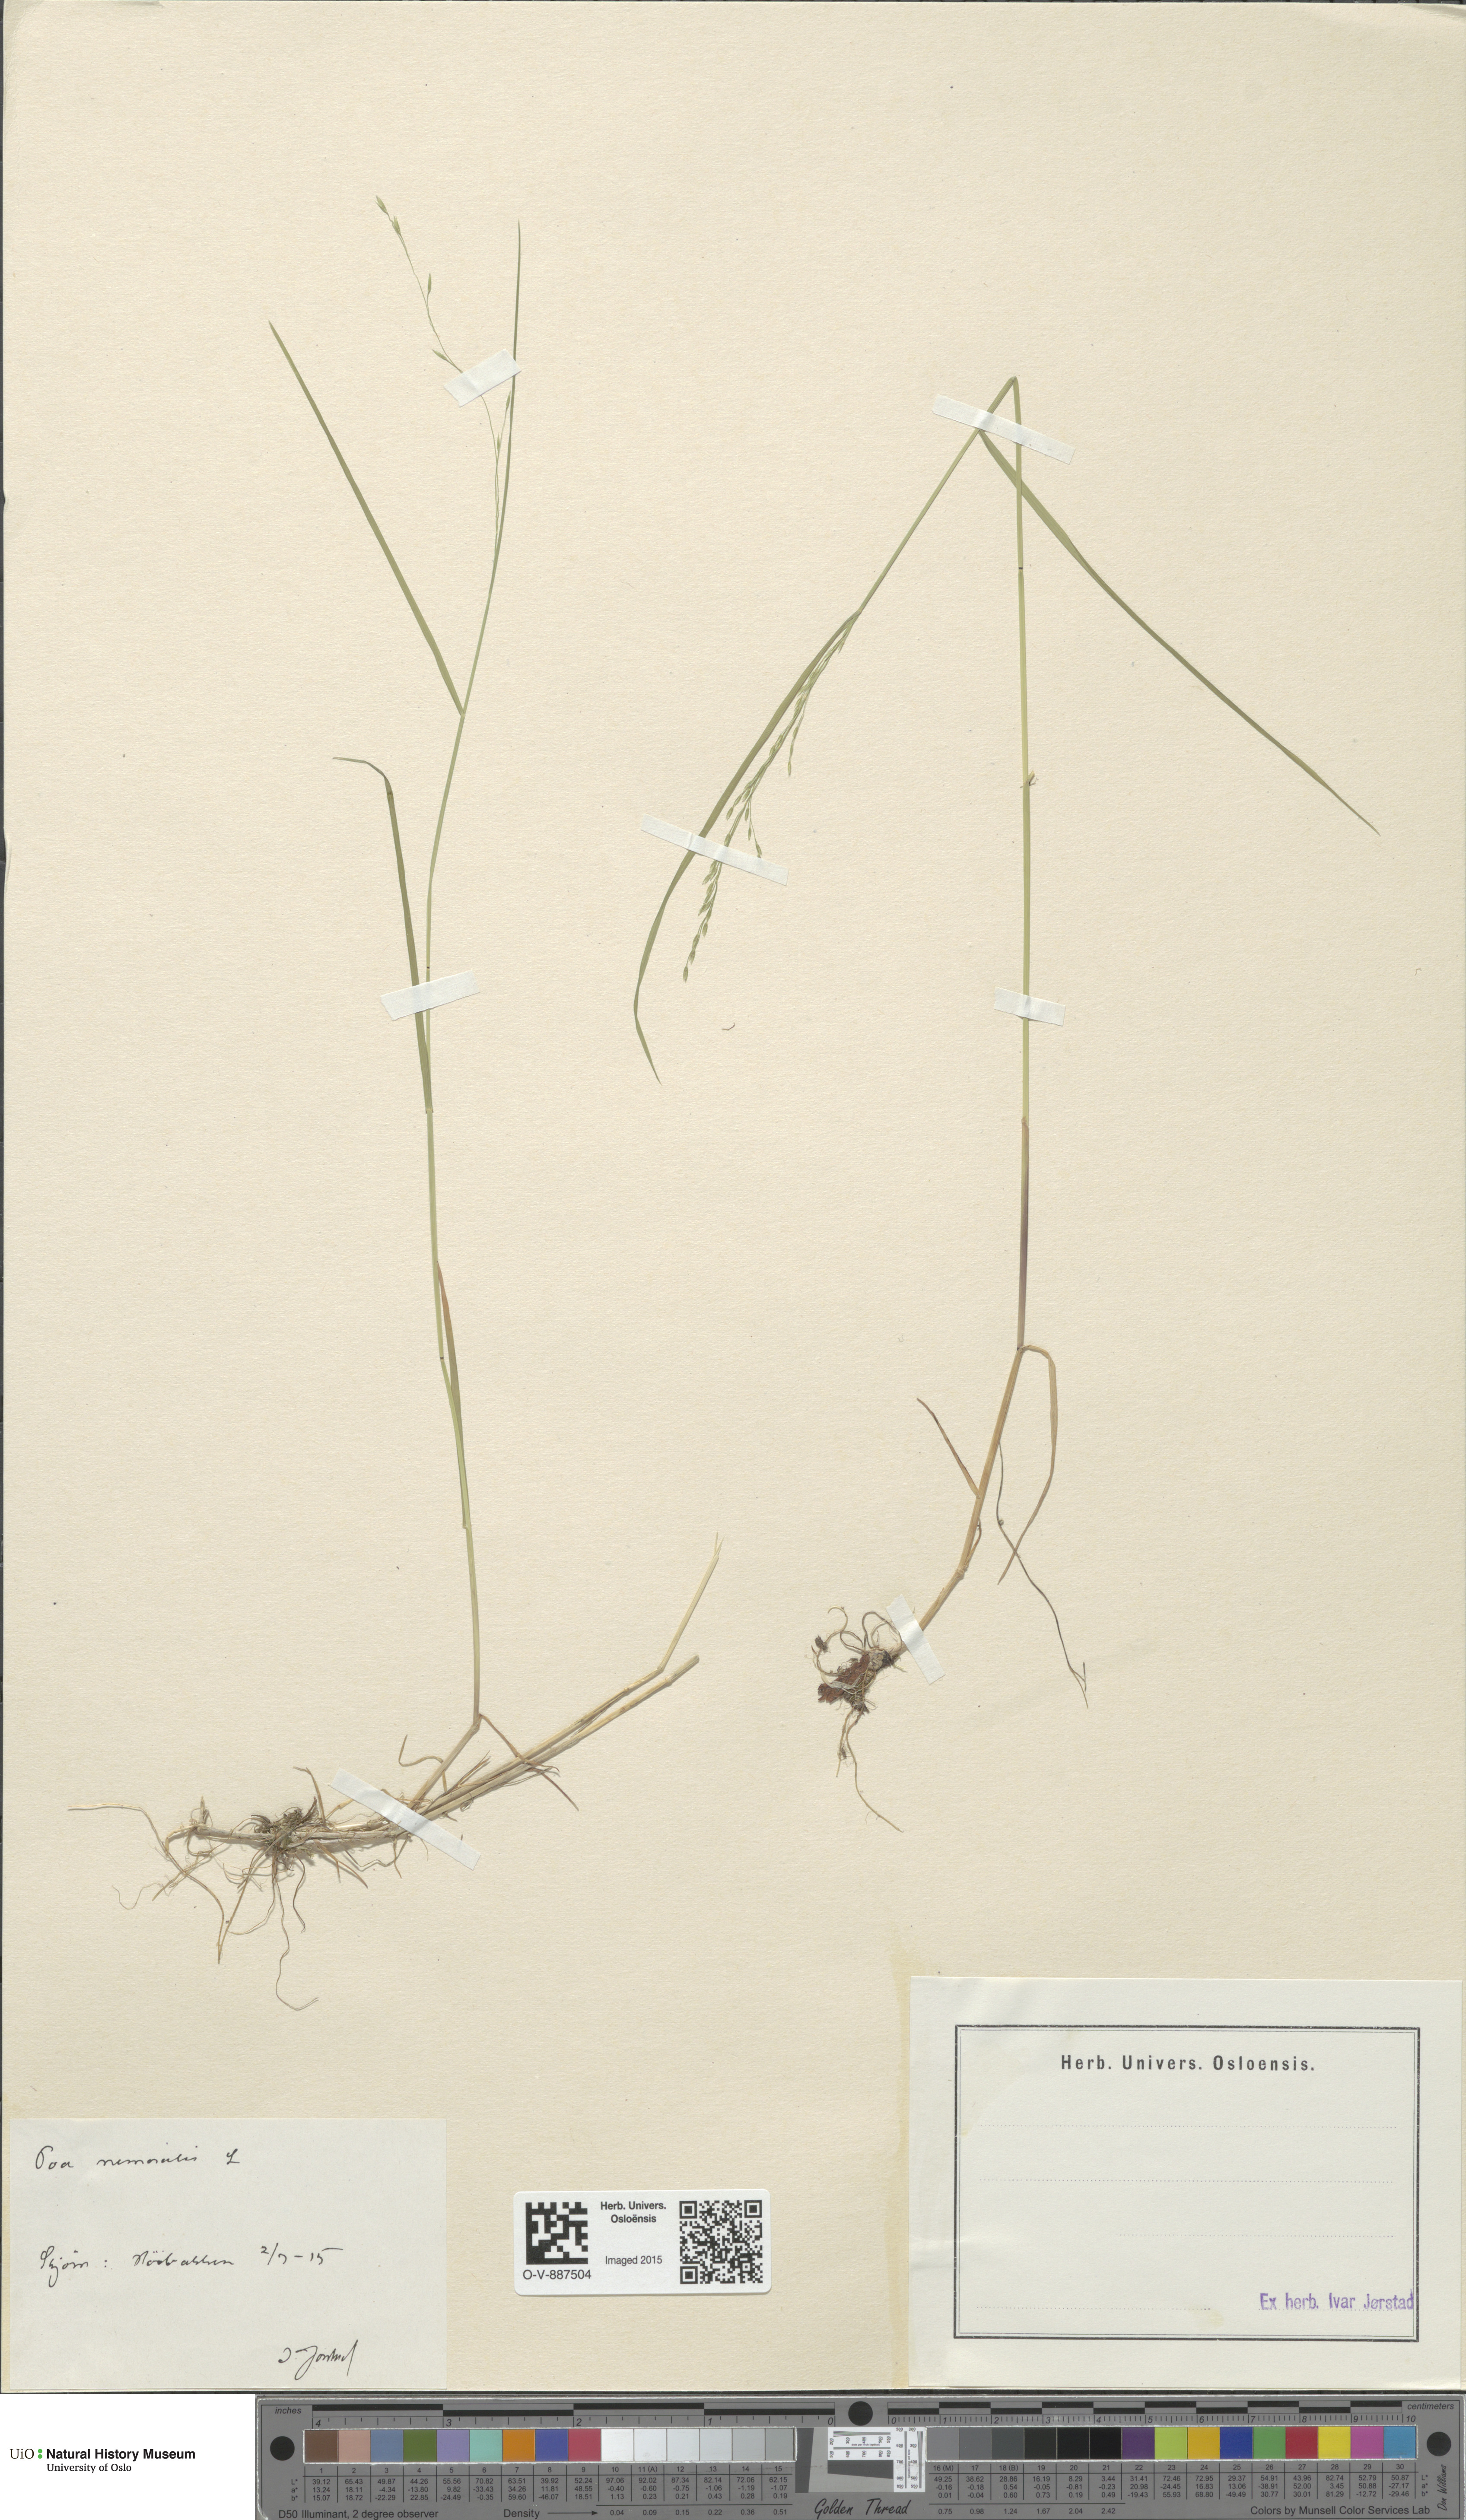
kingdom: Plantae
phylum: Tracheophyta
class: Liliopsida
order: Poales
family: Poaceae
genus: Poa
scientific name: Poa nemoralis
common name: Wood bluegrass
